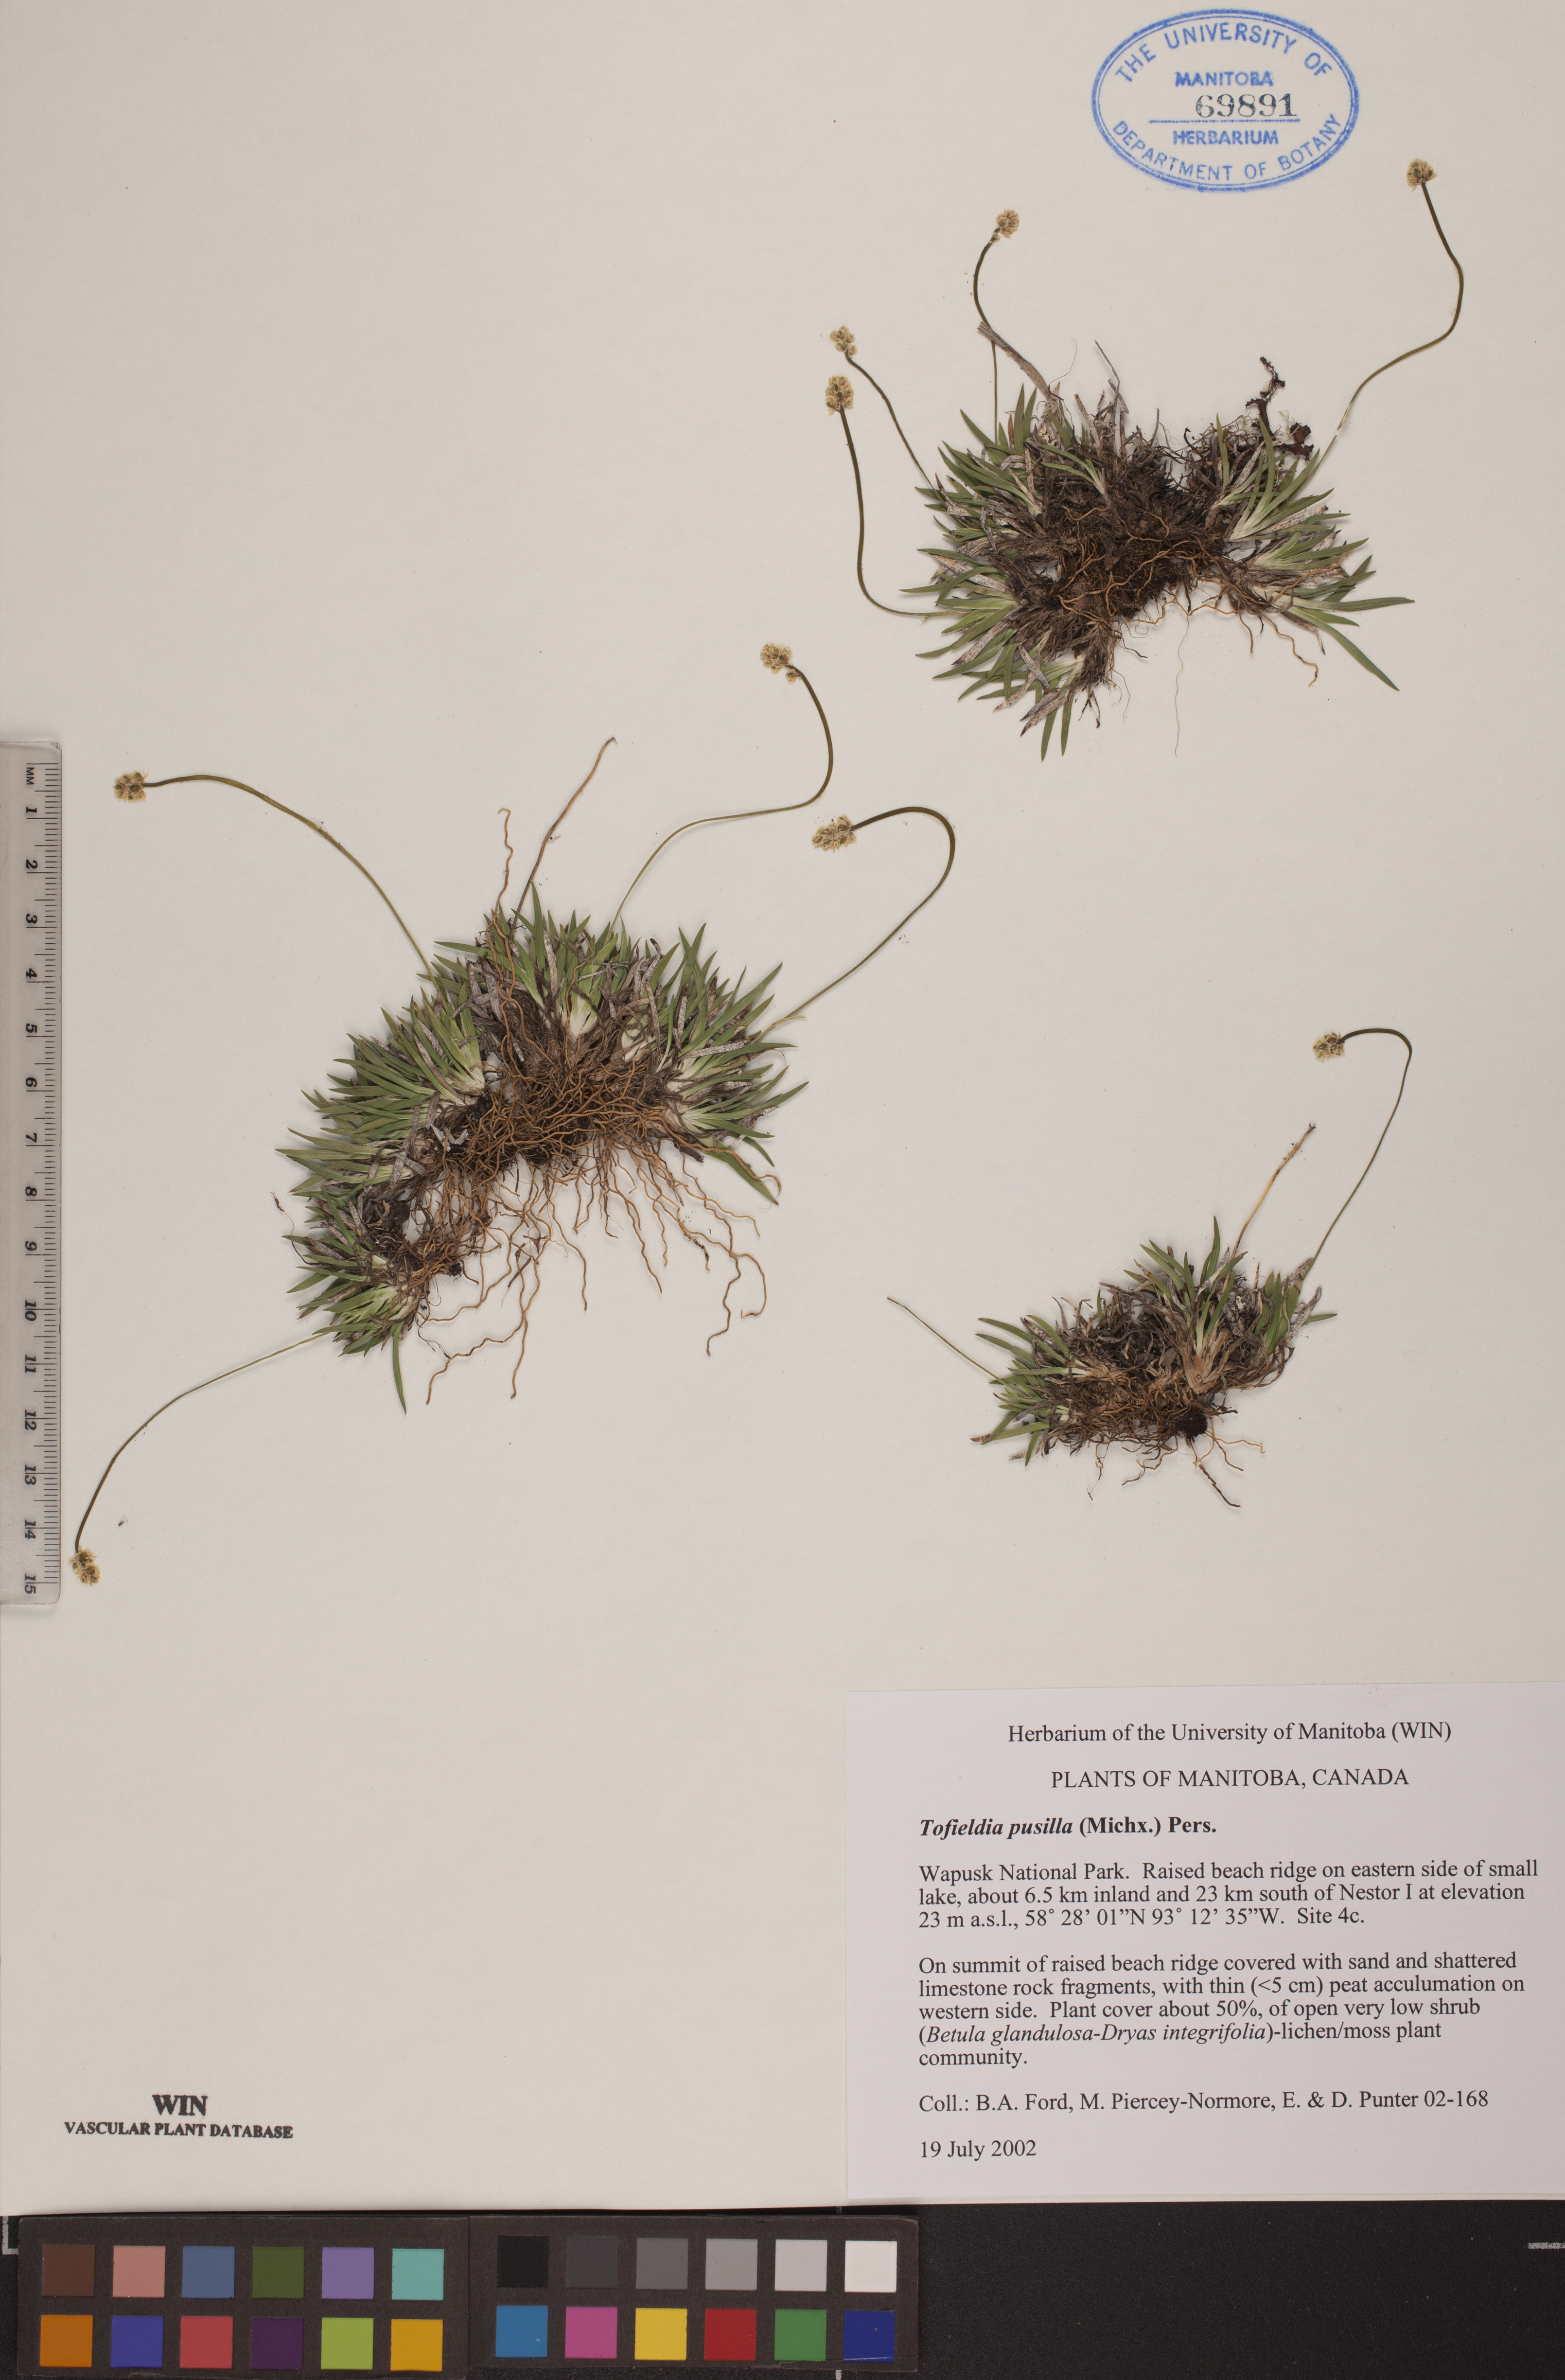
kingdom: Plantae
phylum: Tracheophyta
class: Liliopsida
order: Alismatales
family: Tofieldiaceae
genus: Tofieldia
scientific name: Tofieldia pusilla
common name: Scottish false asphodel
